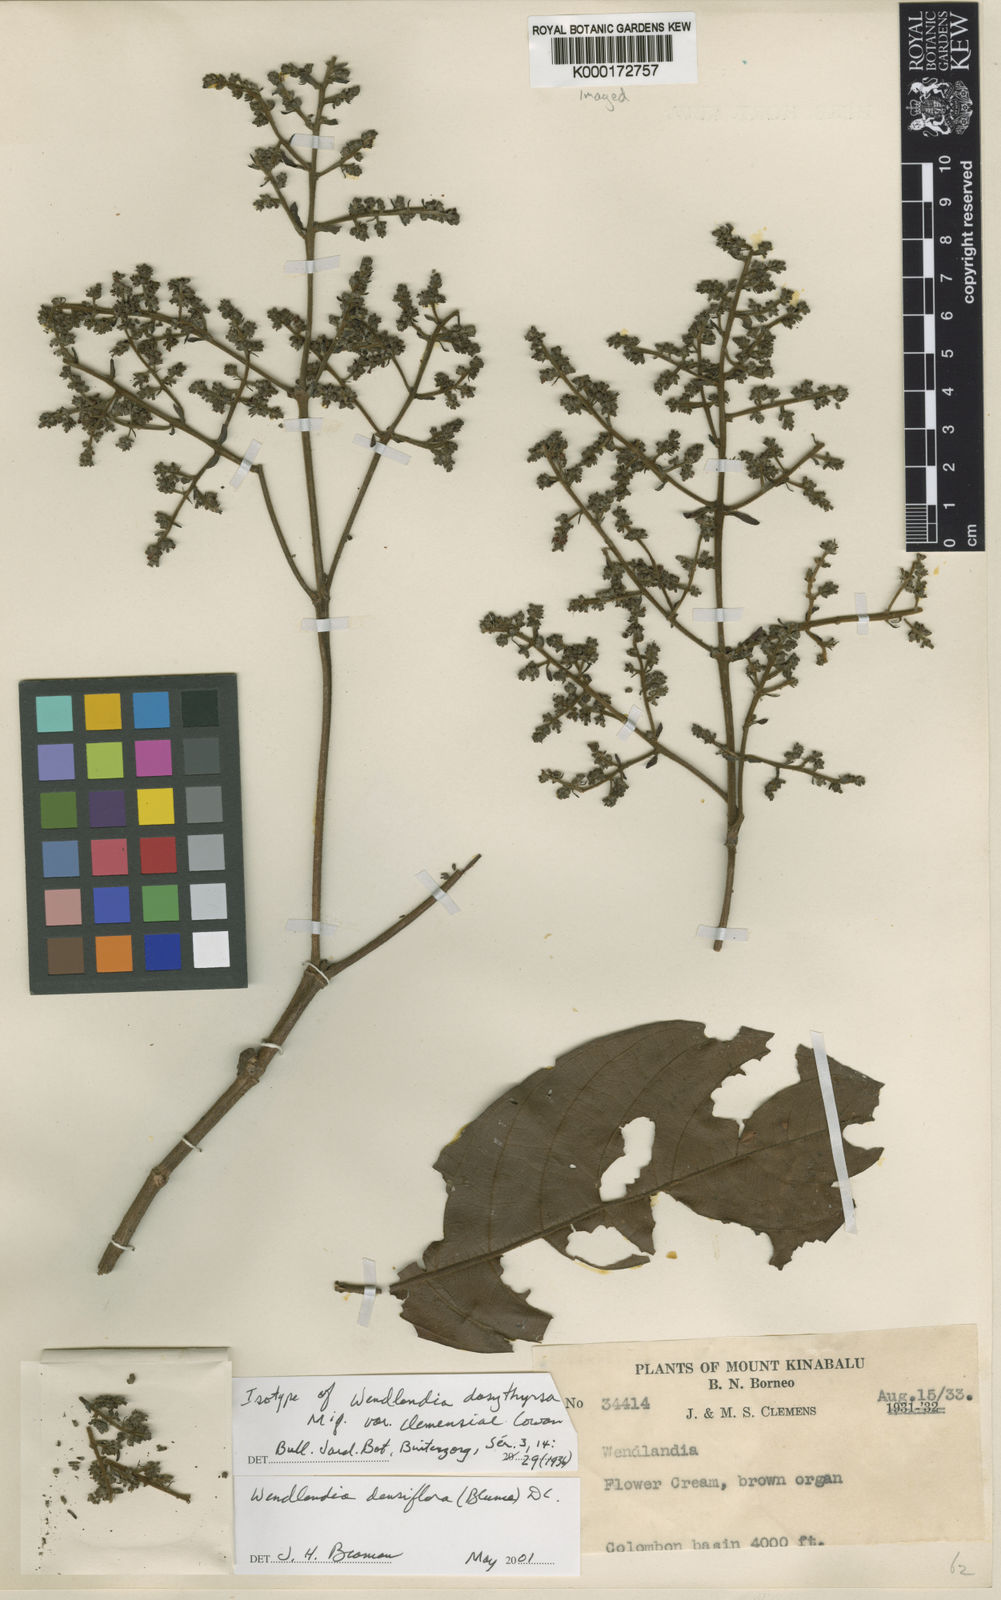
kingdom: Plantae
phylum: Tracheophyta
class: Magnoliopsida
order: Gentianales
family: Rubiaceae
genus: Wendlandia
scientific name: Wendlandia densiflora
